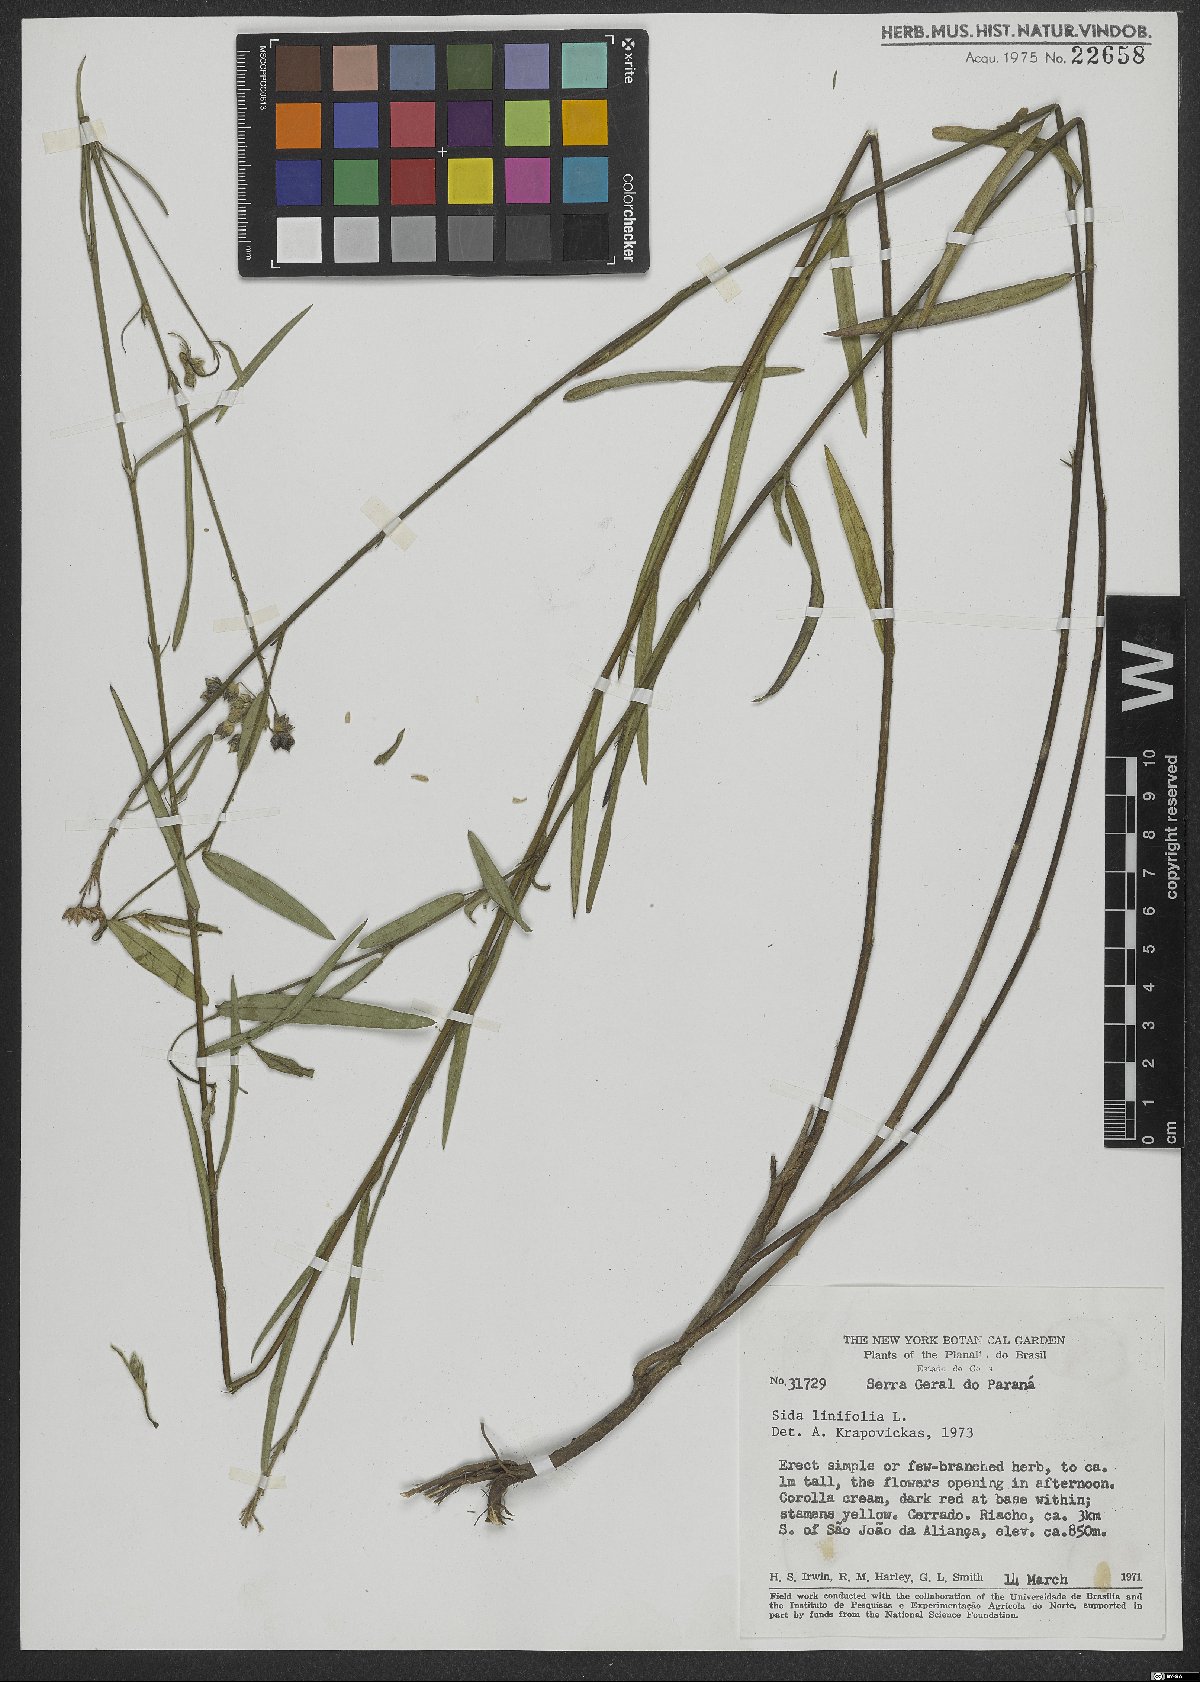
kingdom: Plantae
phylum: Tracheophyta
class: Magnoliopsida
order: Malvales
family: Malvaceae
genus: Sida
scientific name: Sida linifolia
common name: Flaxleaf fanpetals
